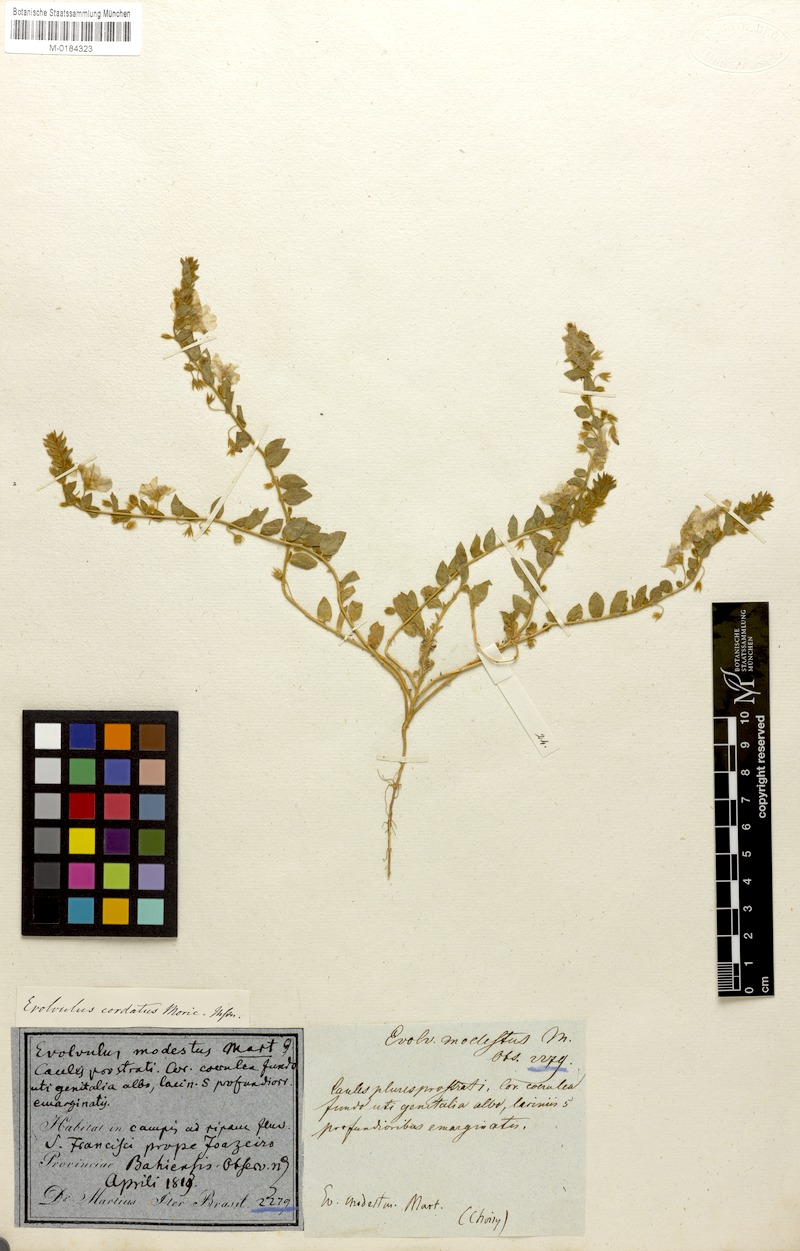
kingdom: Plantae
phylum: Tracheophyta
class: Magnoliopsida
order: Solanales
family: Convolvulaceae
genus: Evolvulus
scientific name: Evolvulus cordatus
